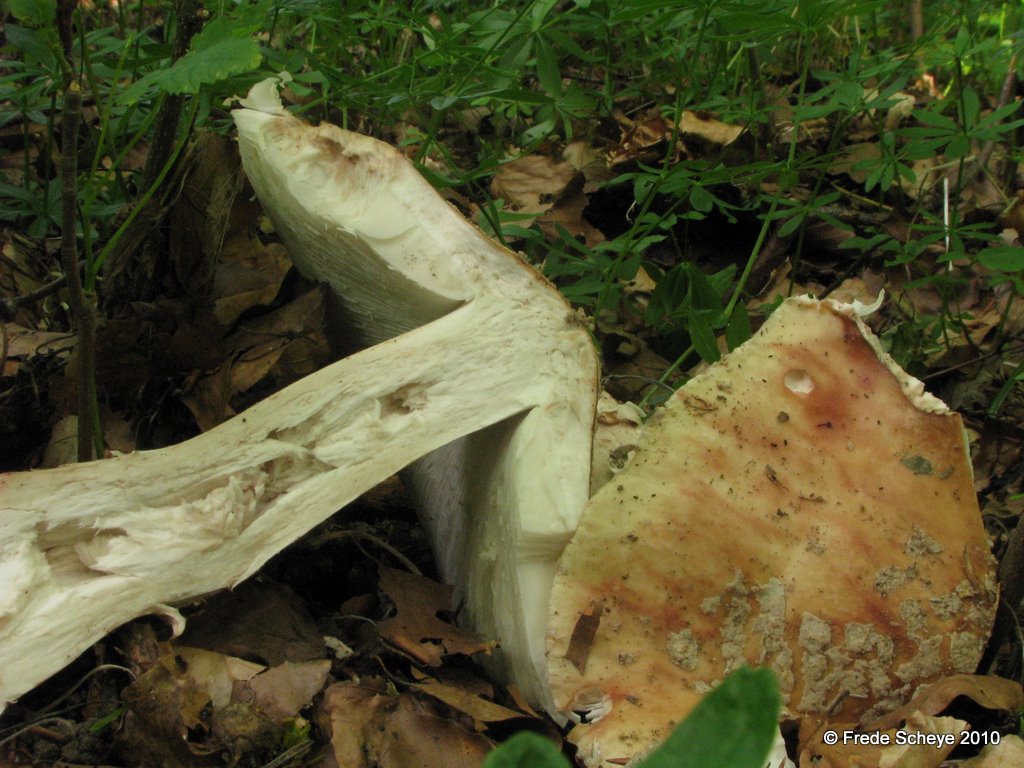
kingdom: Fungi
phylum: Basidiomycota
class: Agaricomycetes
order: Agaricales
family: Amanitaceae
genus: Amanita
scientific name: Amanita rubescens
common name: rødmende fluesvamp
